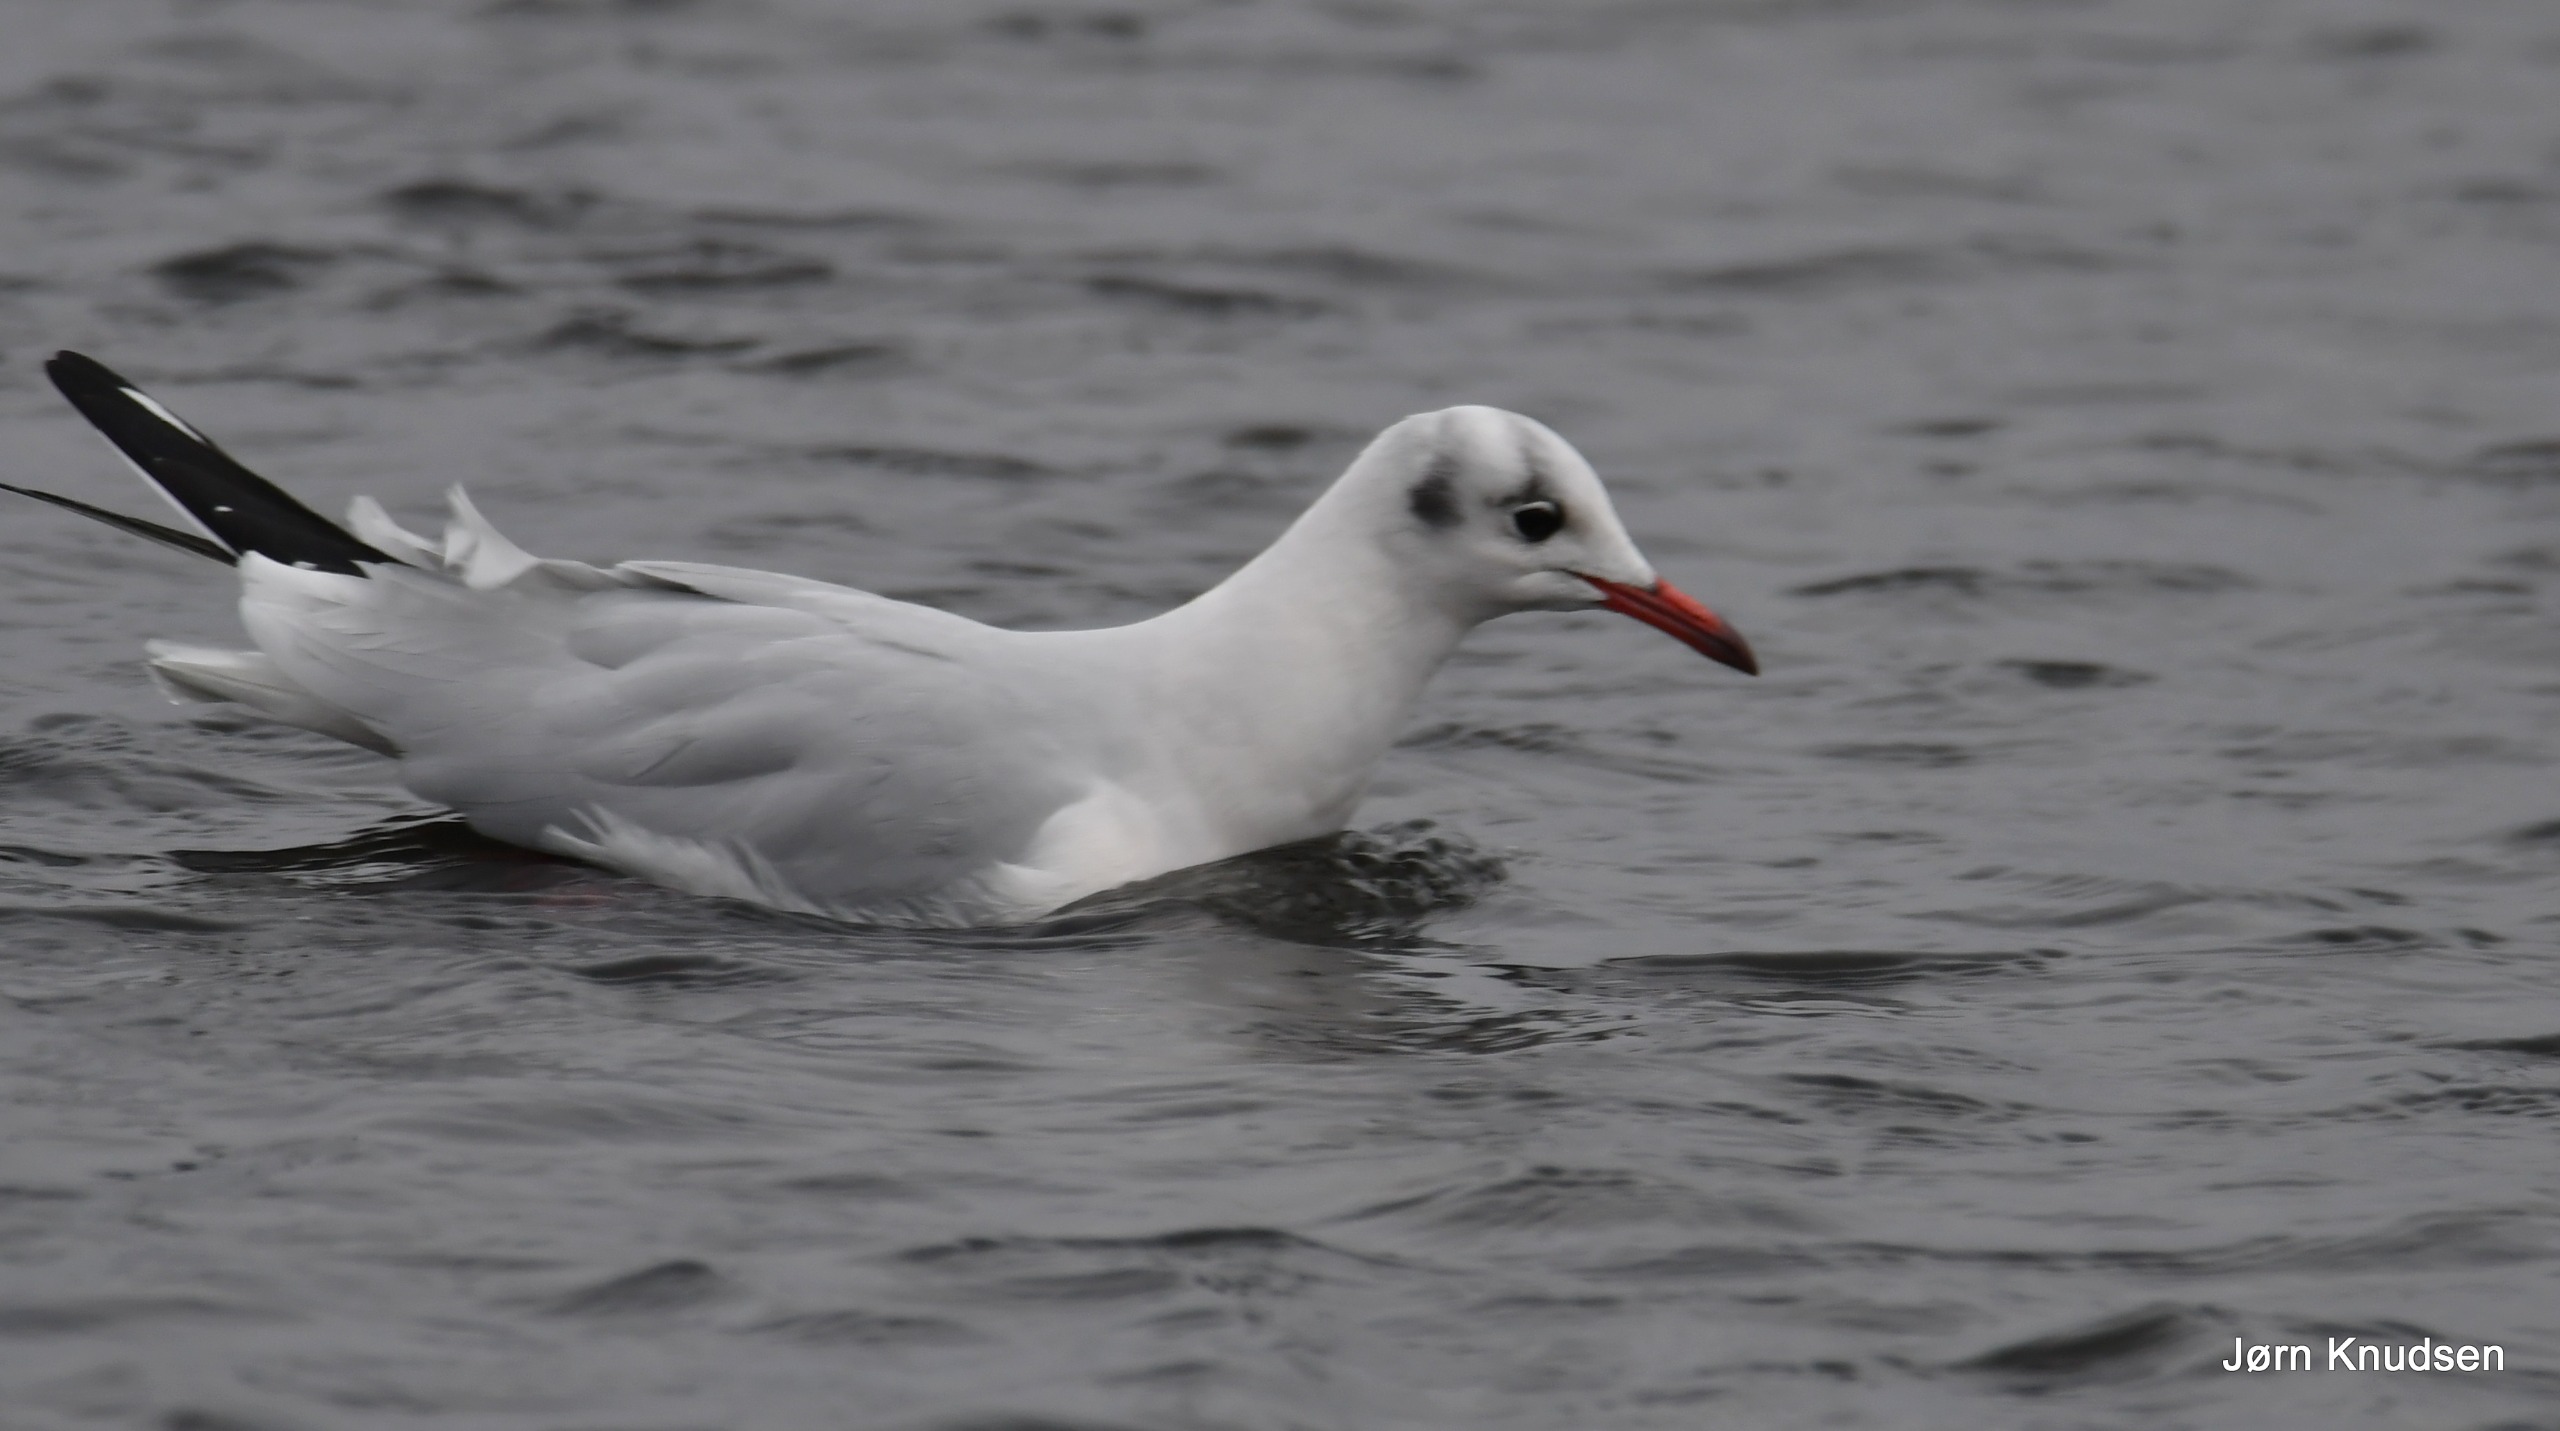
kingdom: Animalia
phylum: Chordata
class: Aves
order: Charadriiformes
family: Laridae
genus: Chroicocephalus
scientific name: Chroicocephalus ridibundus
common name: Hættemåge
